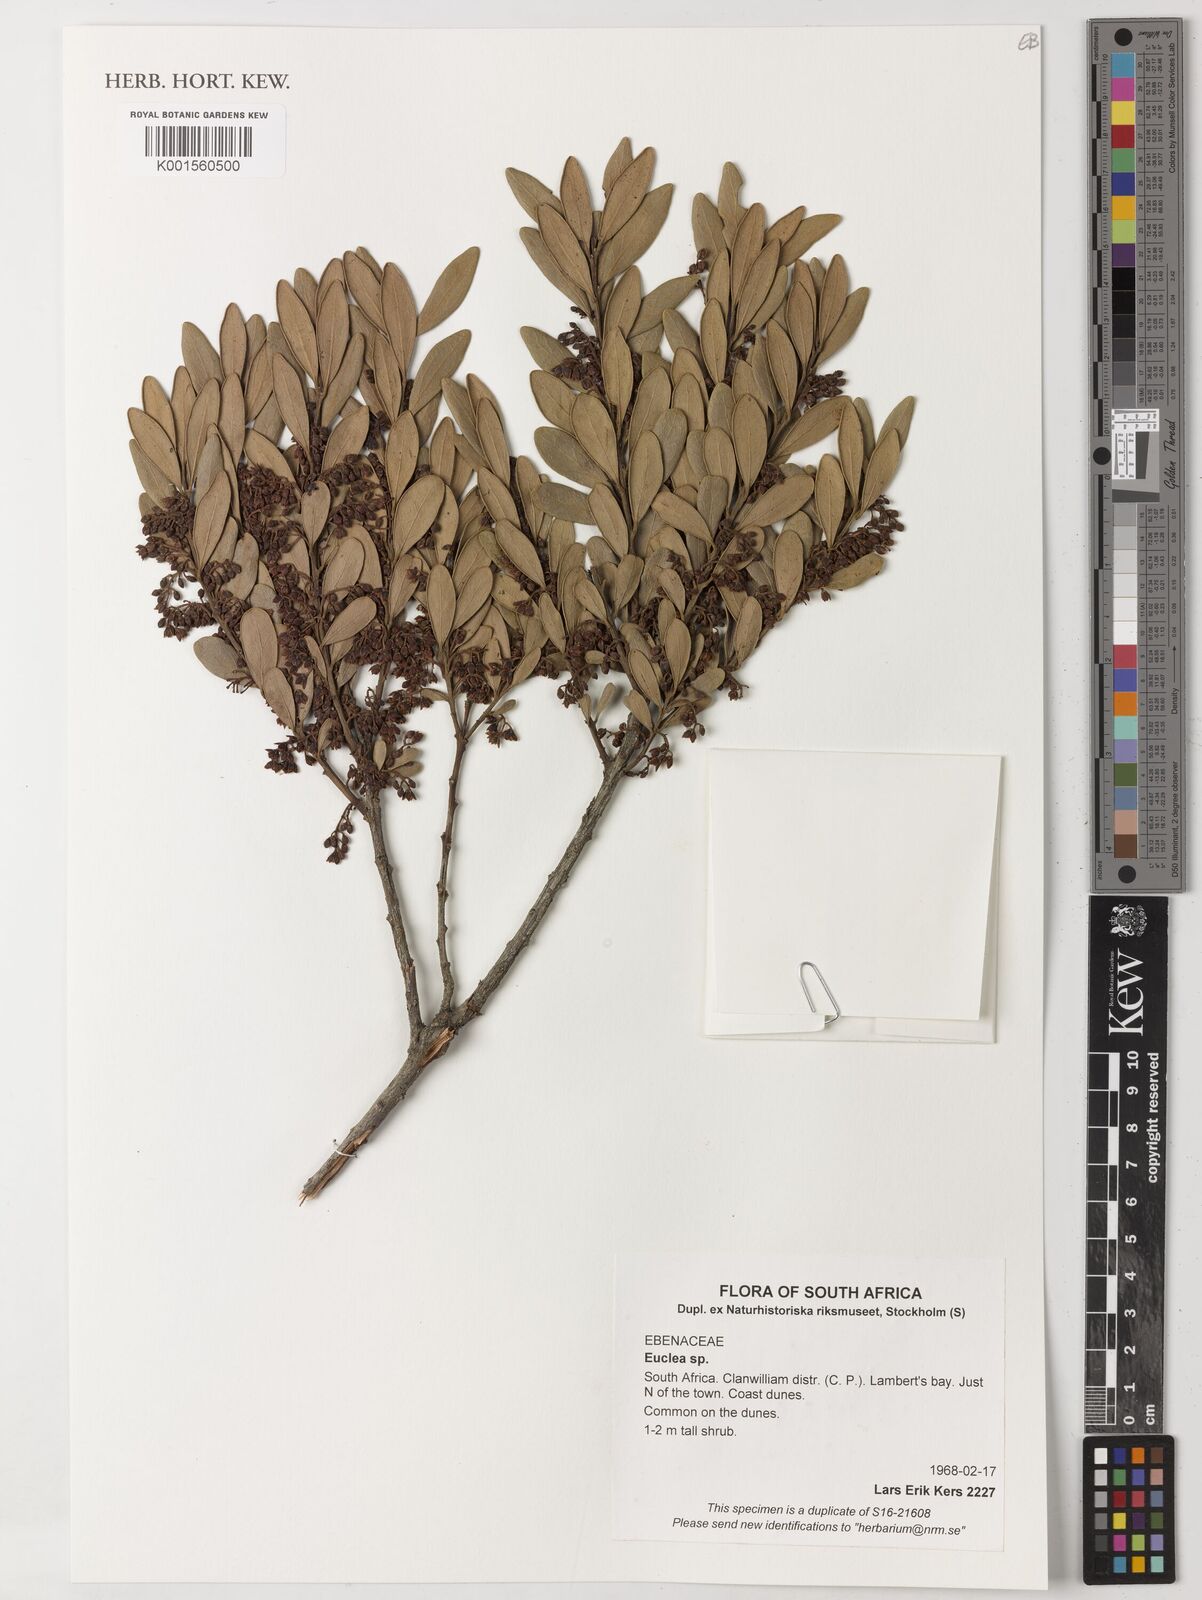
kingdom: Plantae
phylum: Tracheophyta
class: Magnoliopsida
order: Ericales
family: Ebenaceae
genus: Euclea
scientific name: Euclea
